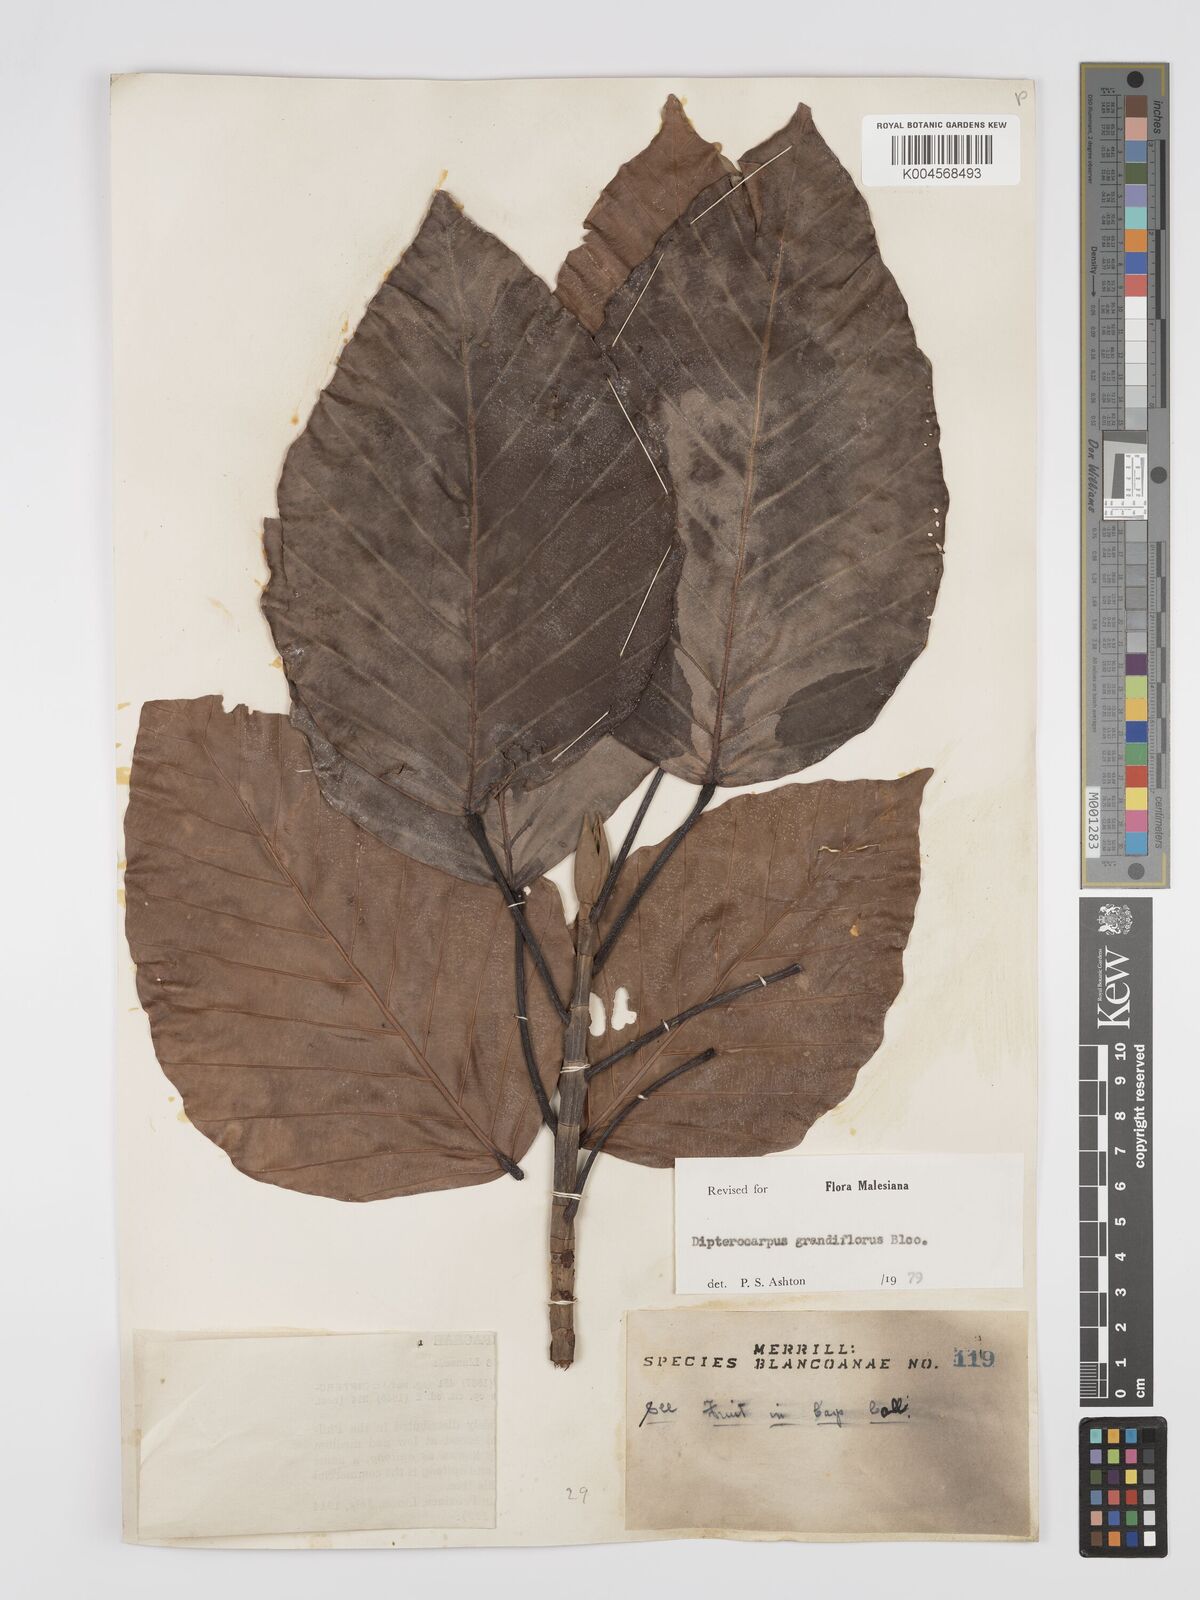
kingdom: Plantae
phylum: Tracheophyta
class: Magnoliopsida
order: Malvales
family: Dipterocarpaceae
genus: Dipterocarpus
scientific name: Dipterocarpus grandiflorus
